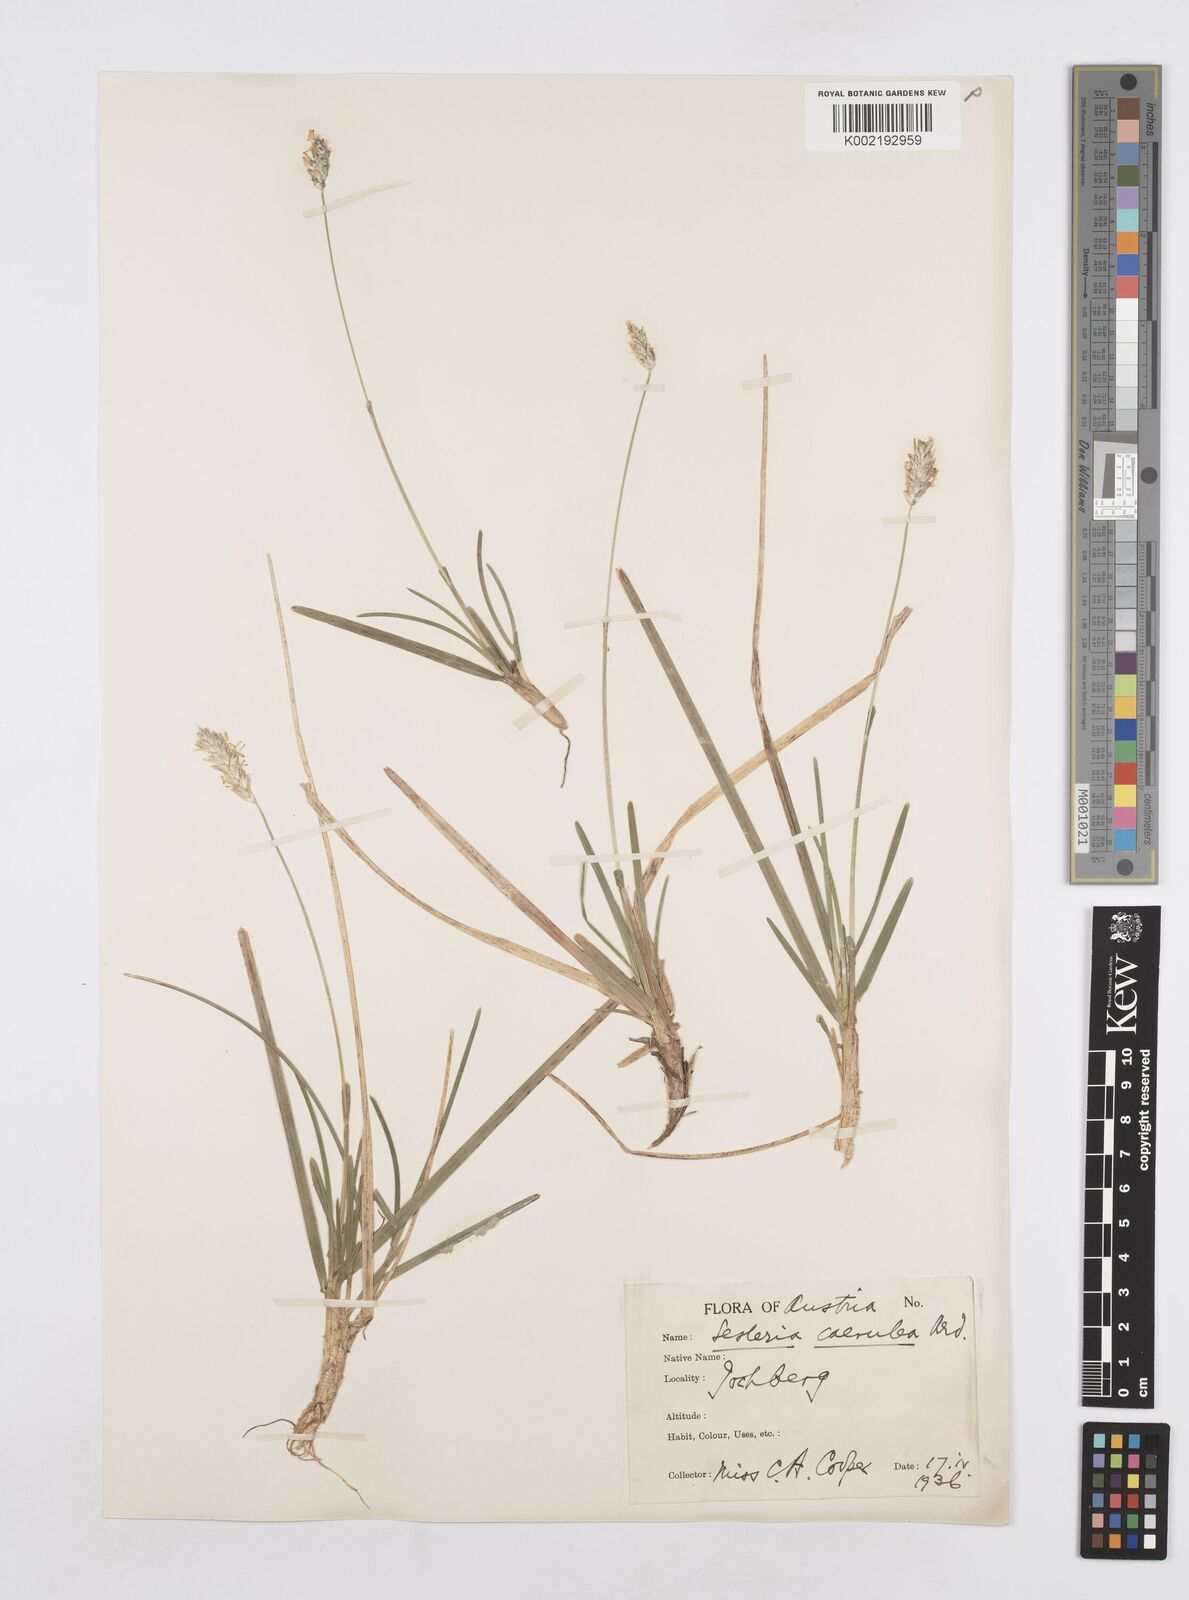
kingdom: Plantae
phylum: Tracheophyta
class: Liliopsida
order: Poales
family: Poaceae
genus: Sesleria
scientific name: Sesleria caerulea
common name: Blue moor-grass
